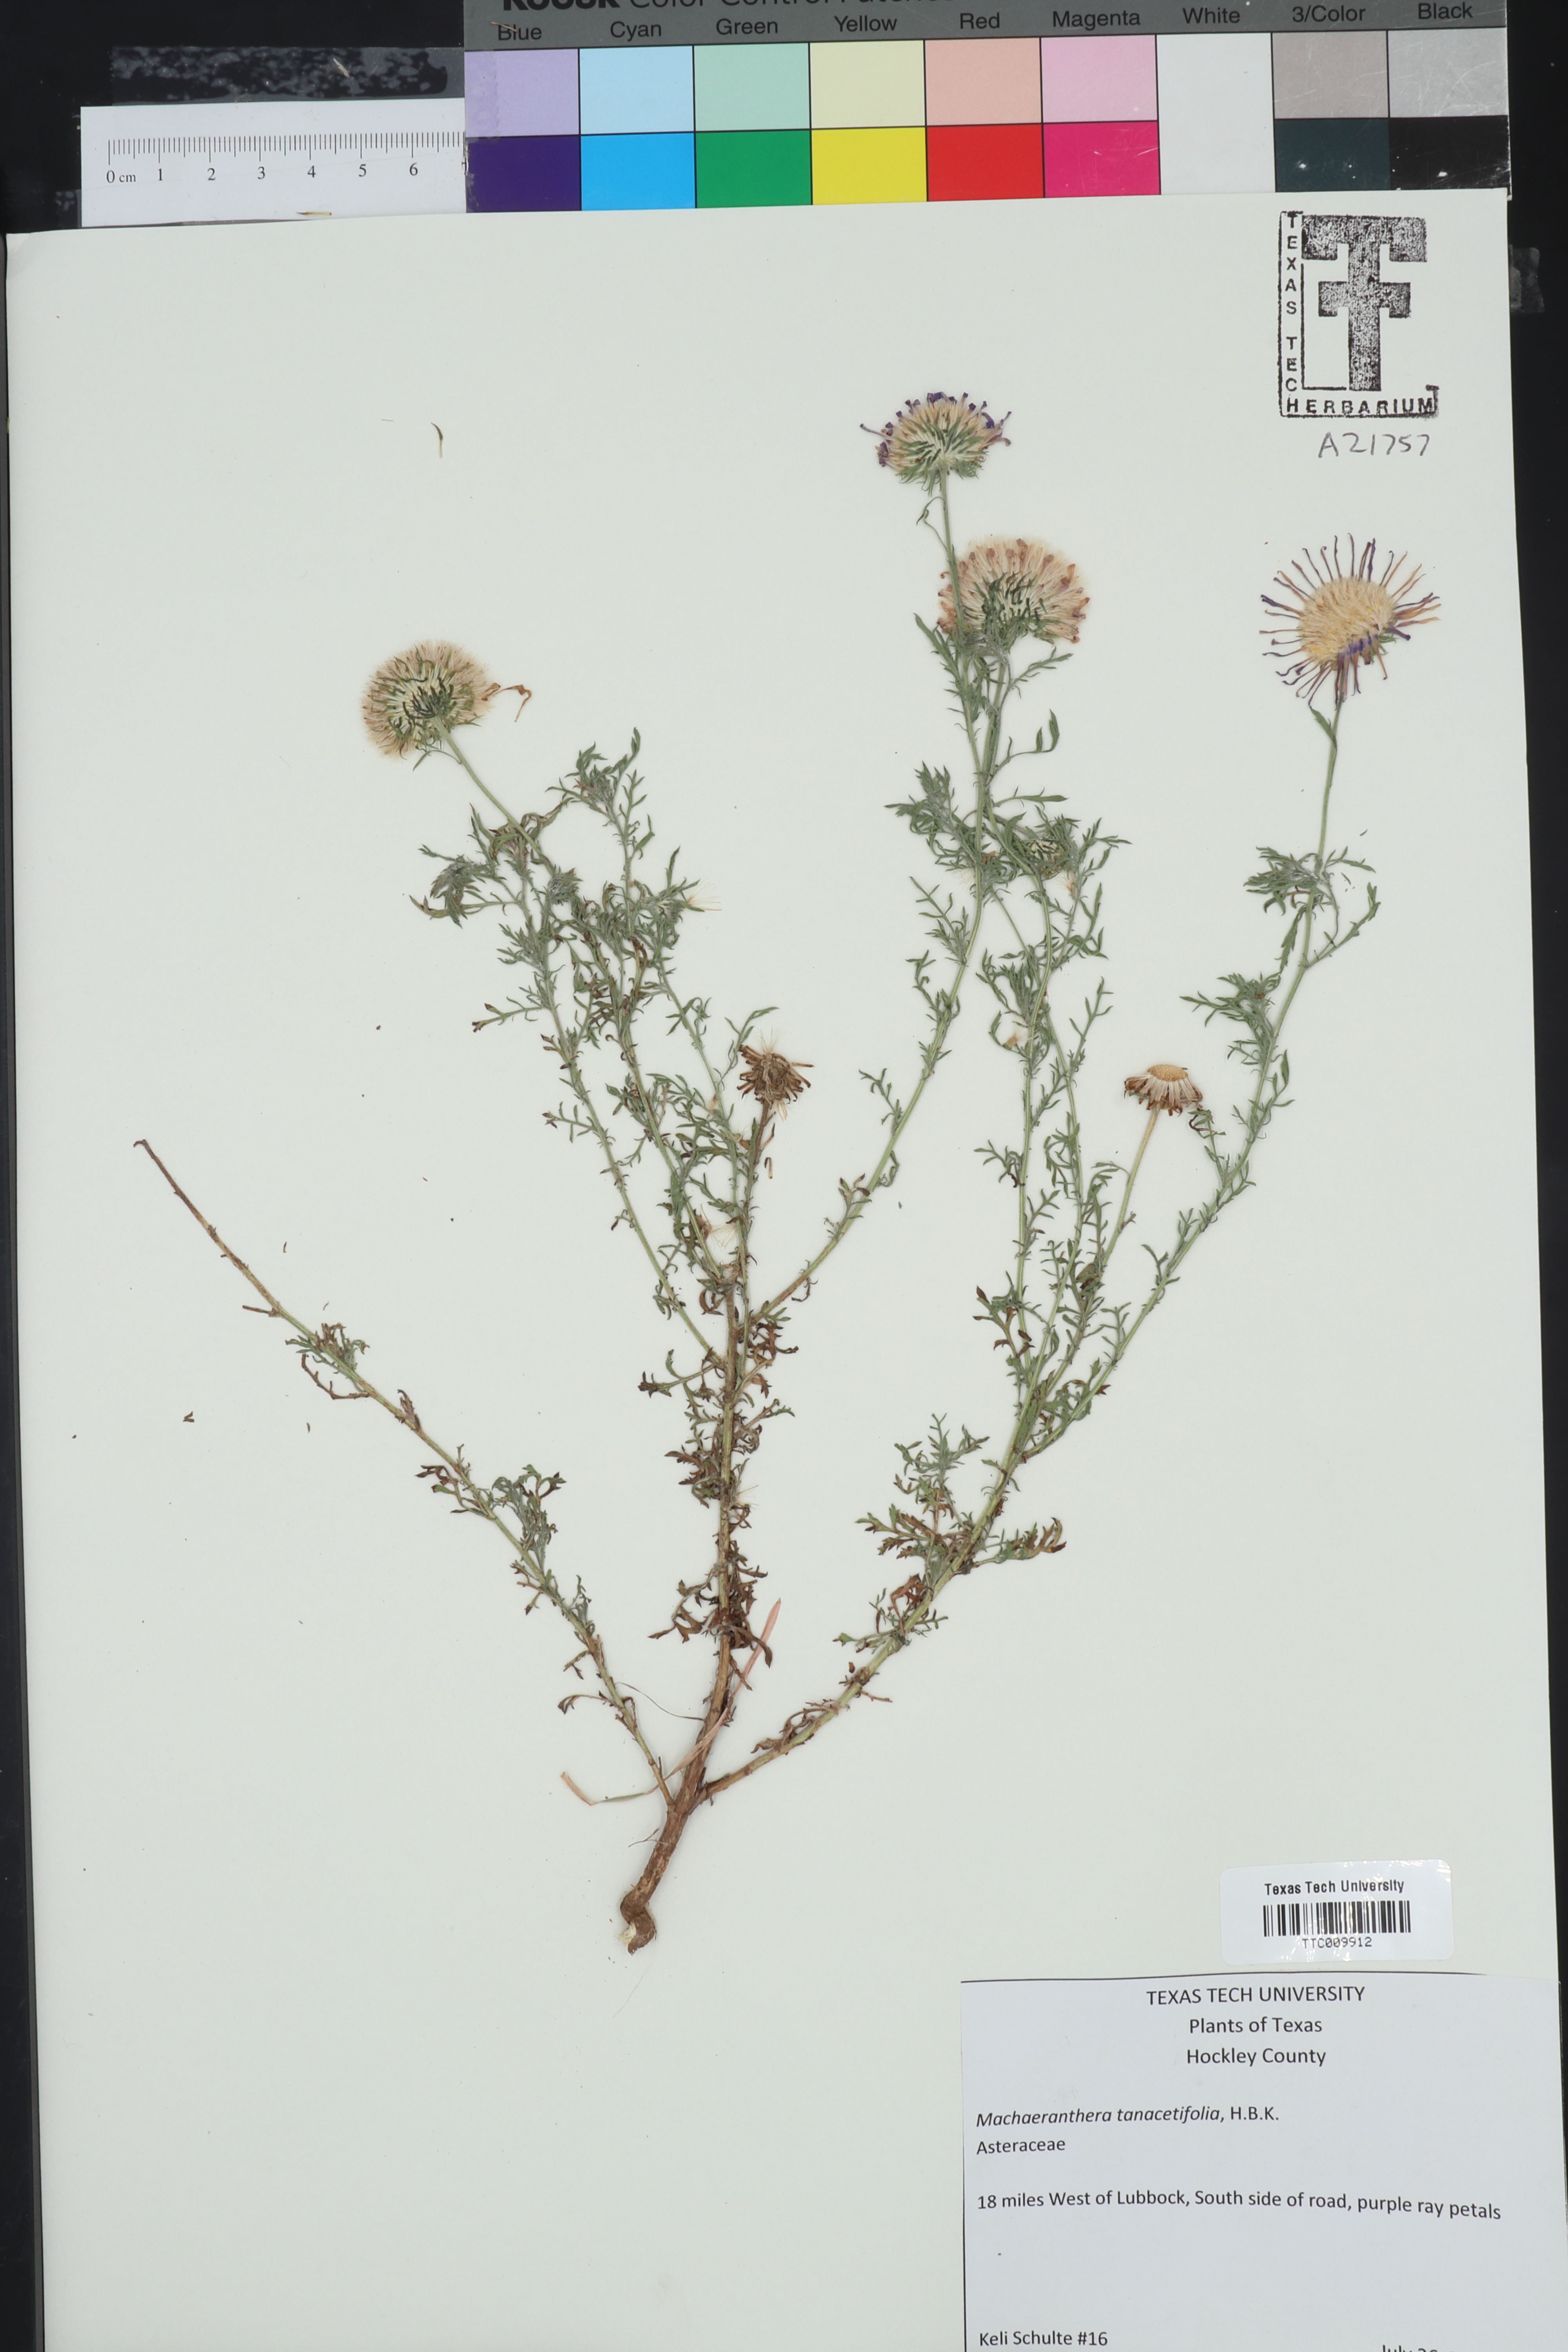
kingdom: Plantae
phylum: Tracheophyta
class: Magnoliopsida
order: Asterales
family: Asteraceae
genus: Machaeranthera
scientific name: Machaeranthera tanacetifolia
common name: Tansy-aster
